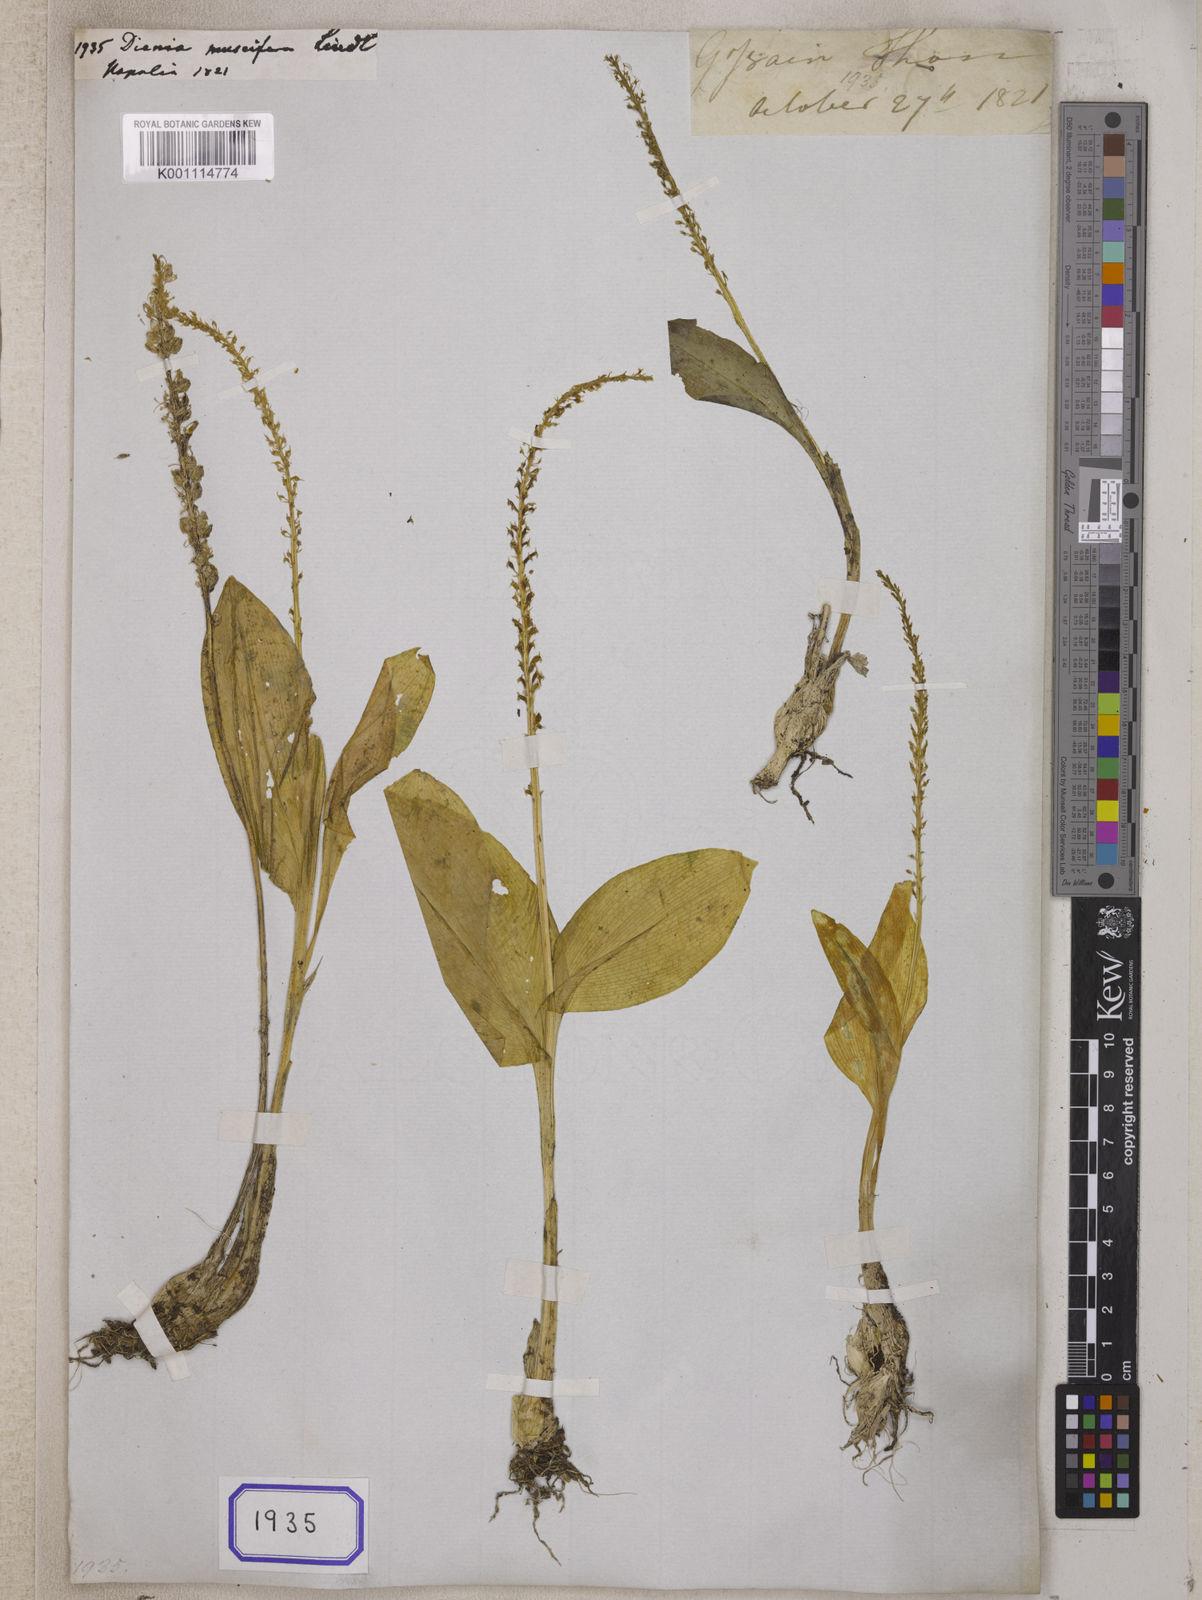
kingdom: Plantae
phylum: Tracheophyta
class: Liliopsida
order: Asparagales
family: Orchidaceae
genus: Malaxis
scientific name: Malaxis muscifera
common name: Adder-mouth orchid
